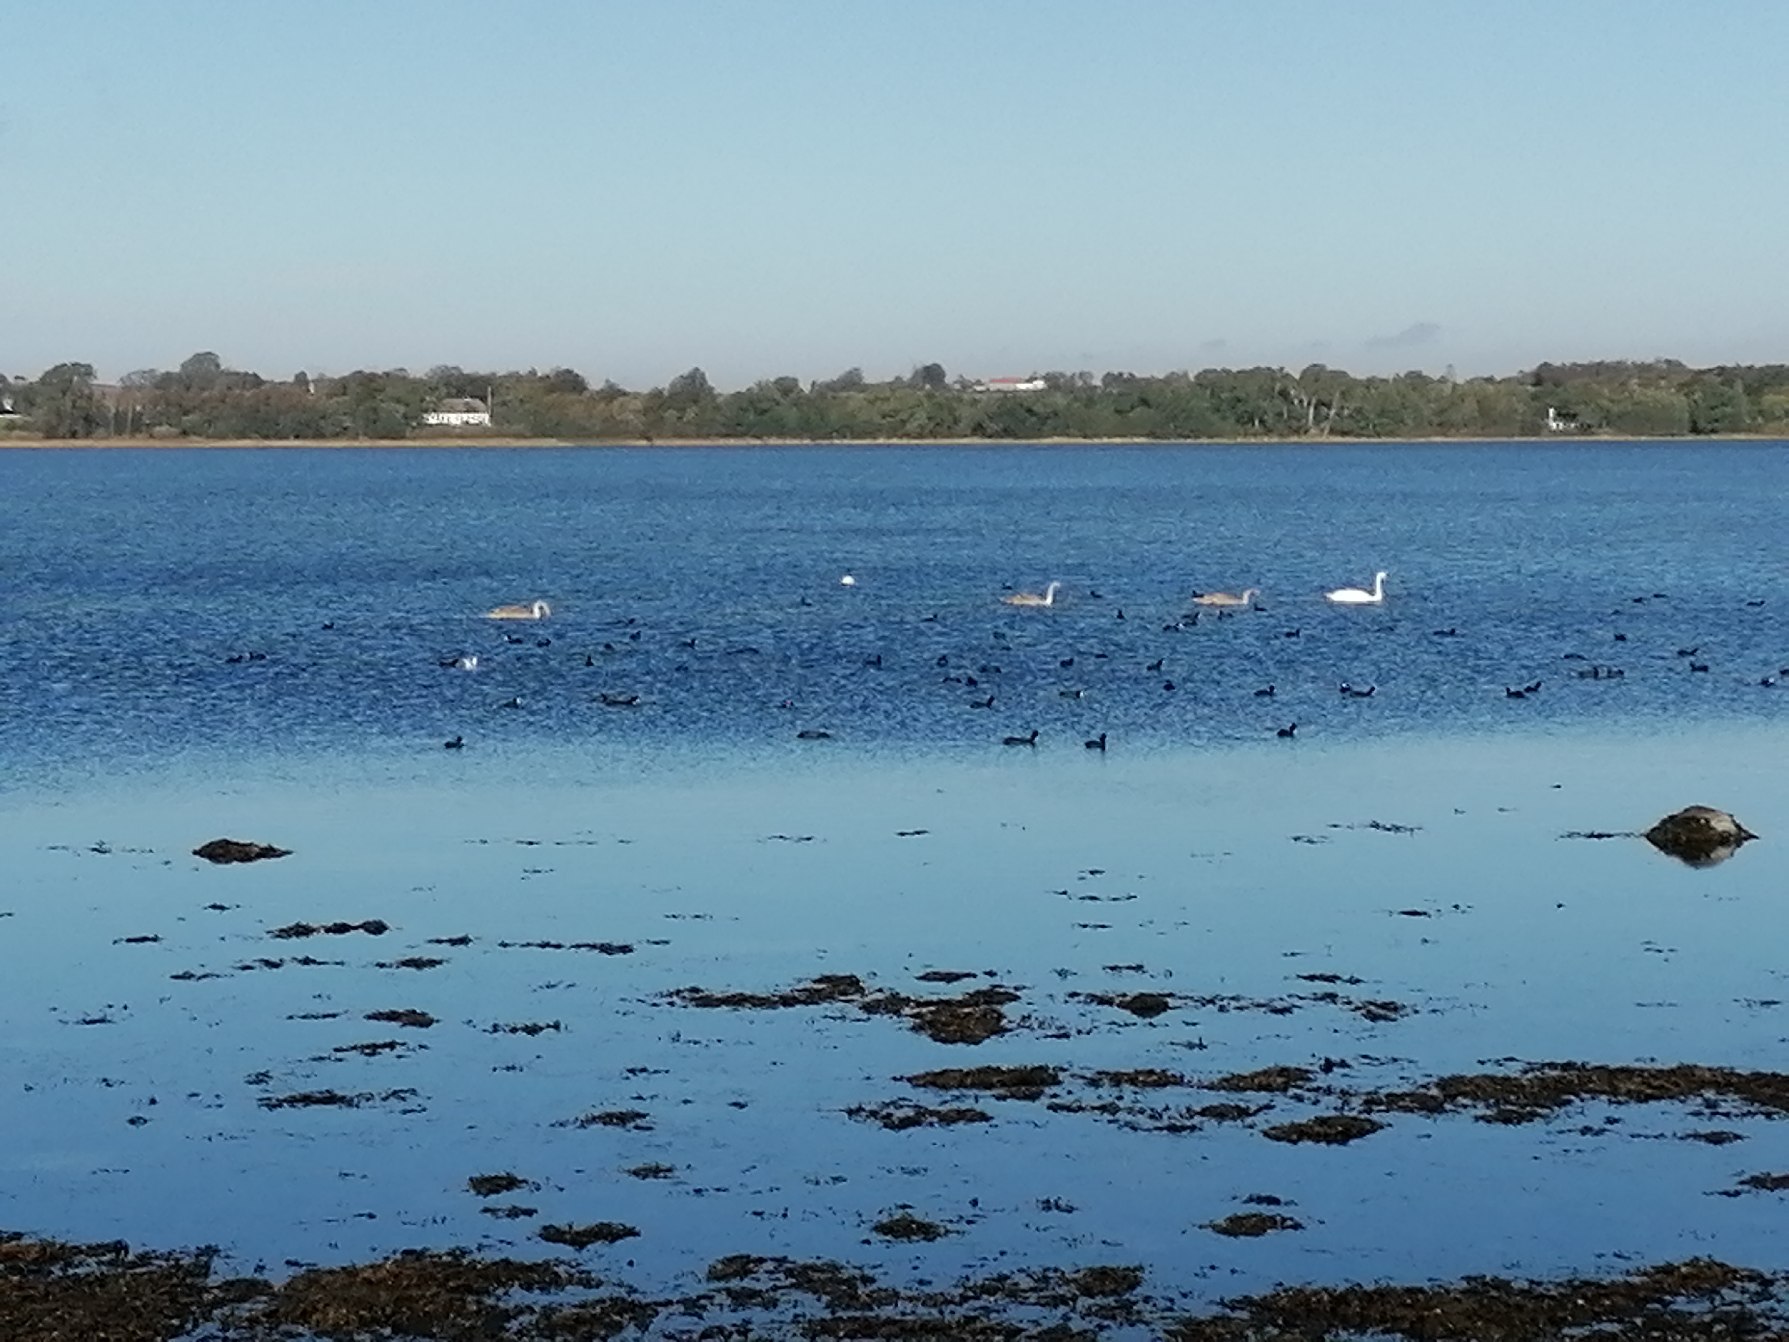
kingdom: Animalia
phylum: Chordata
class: Aves
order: Anseriformes
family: Anatidae
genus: Cygnus
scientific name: Cygnus olor
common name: Knopsvane
